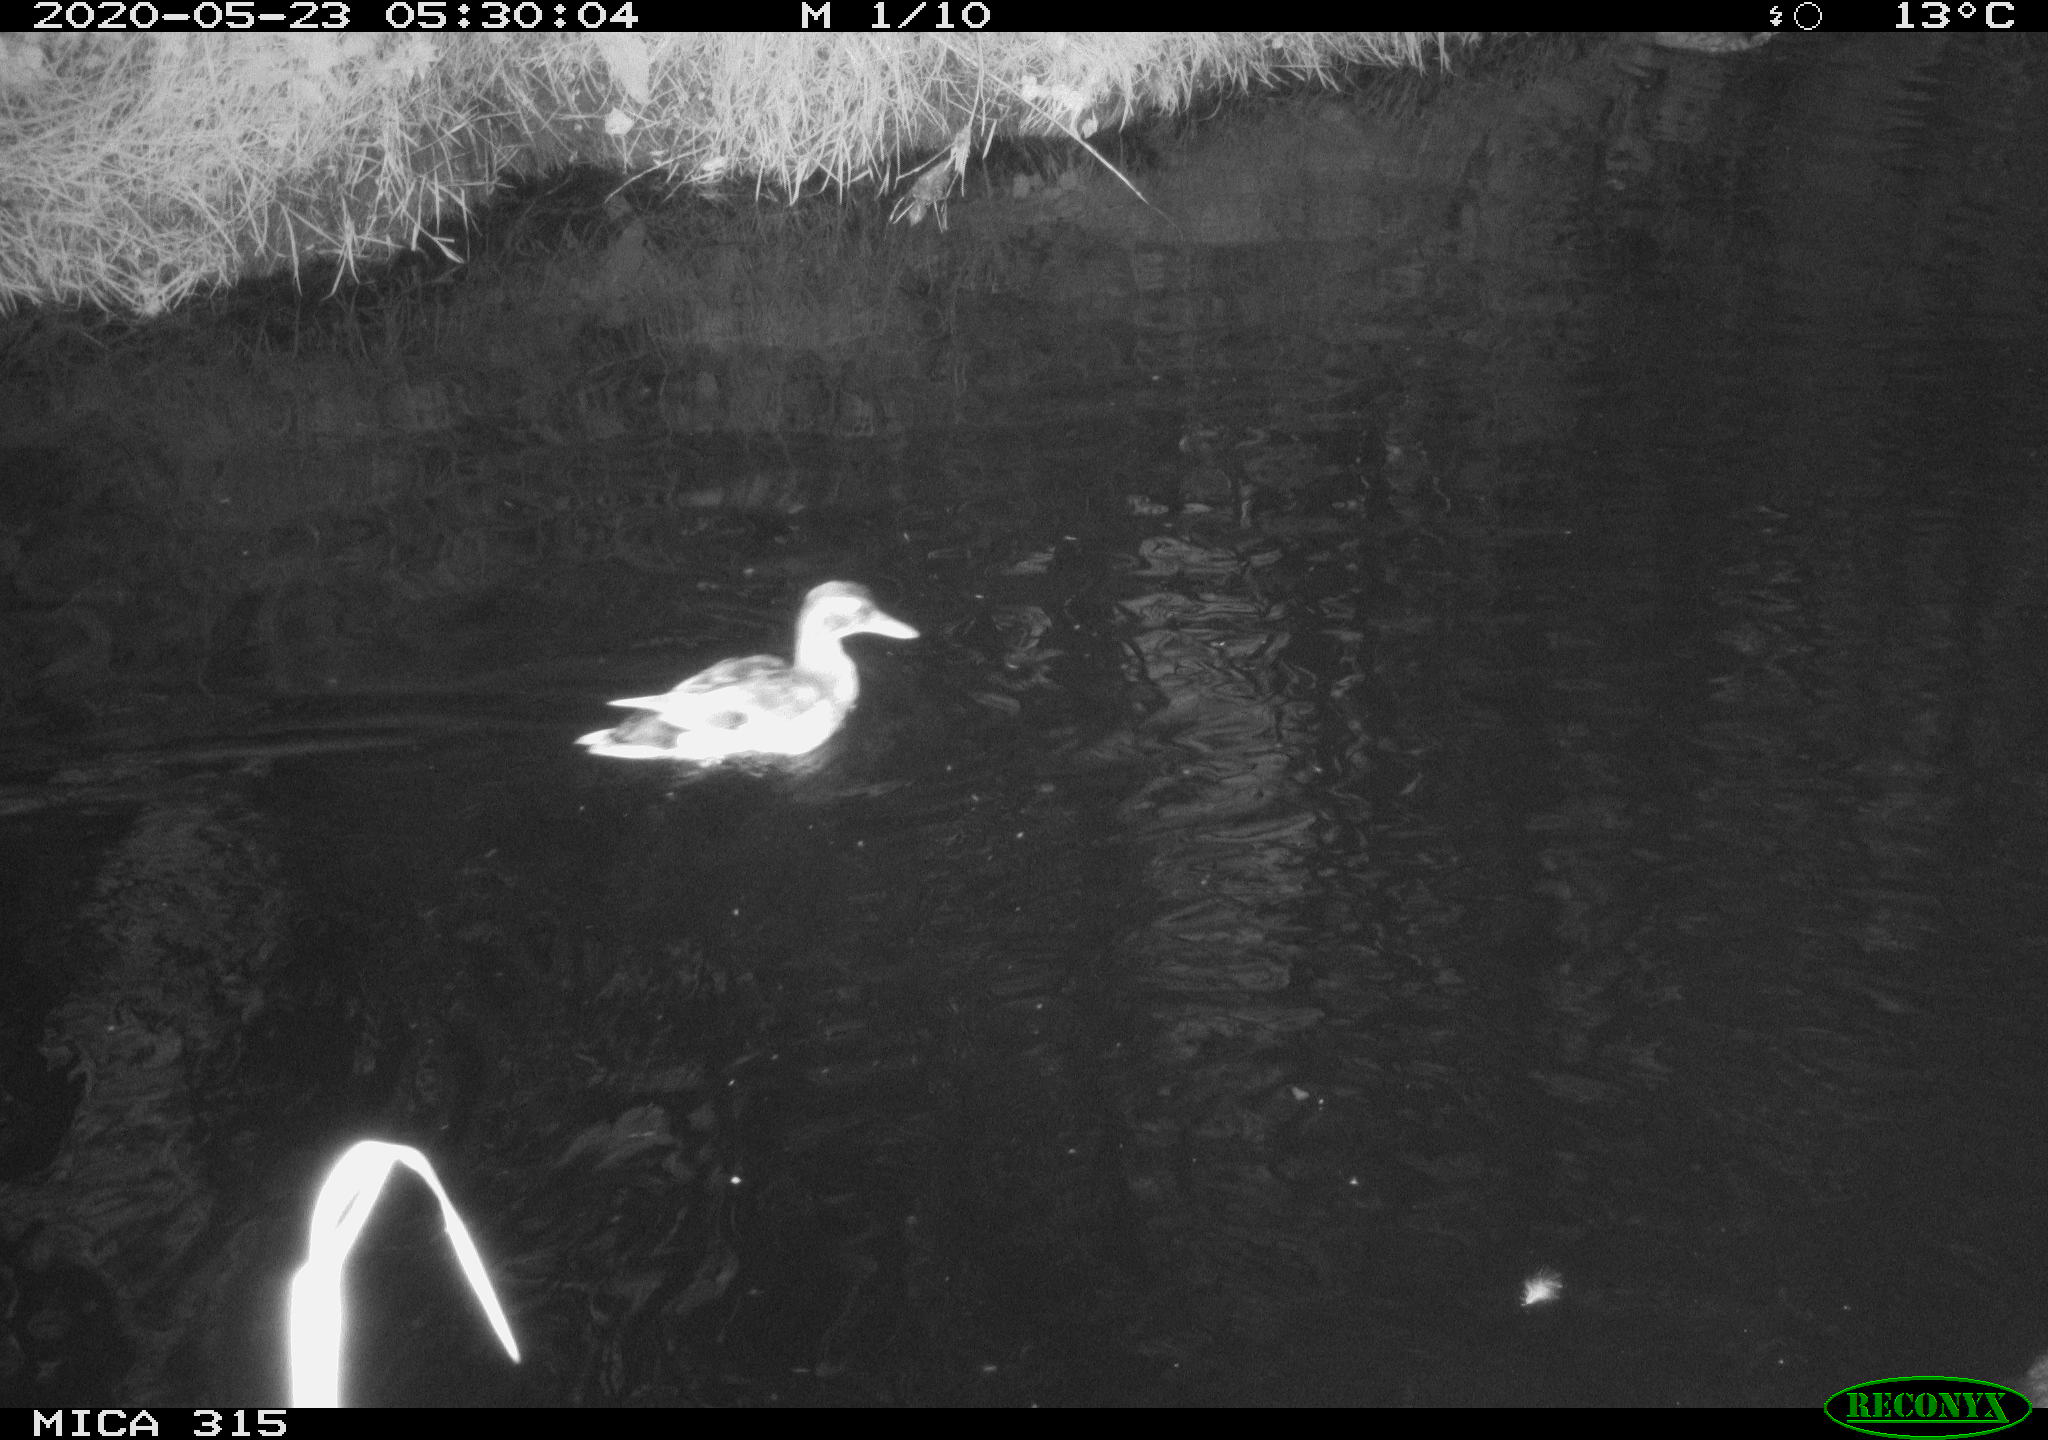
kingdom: Animalia
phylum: Chordata
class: Aves
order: Anseriformes
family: Anatidae
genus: Anas
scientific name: Anas platyrhynchos
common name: Mallard
